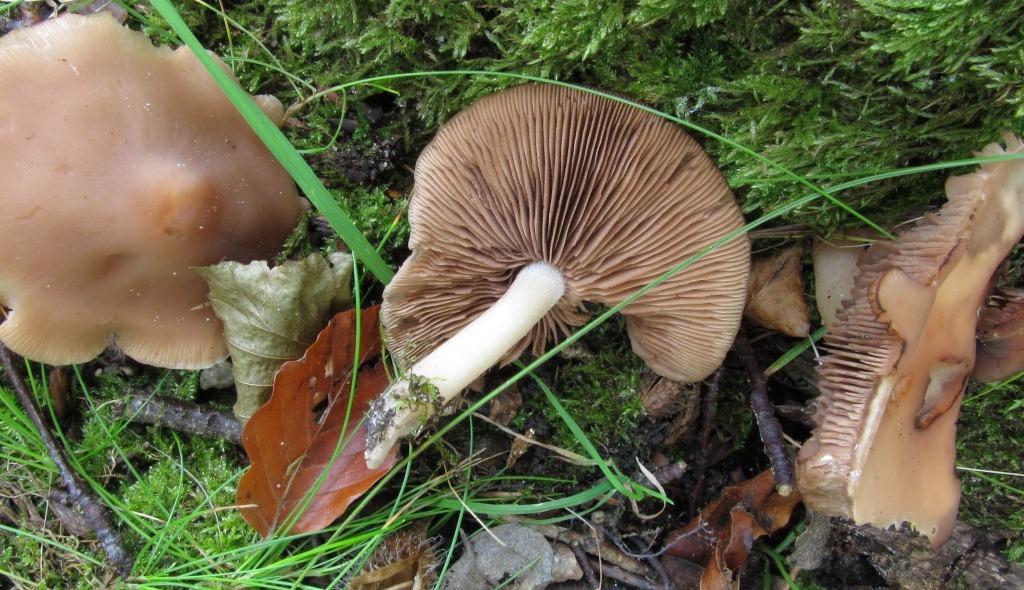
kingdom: Fungi
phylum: Basidiomycota
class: Agaricomycetes
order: Agaricales
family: Psathyrellaceae
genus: Homophron
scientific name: Homophron spadiceum
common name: daddelbrun mørkhat
